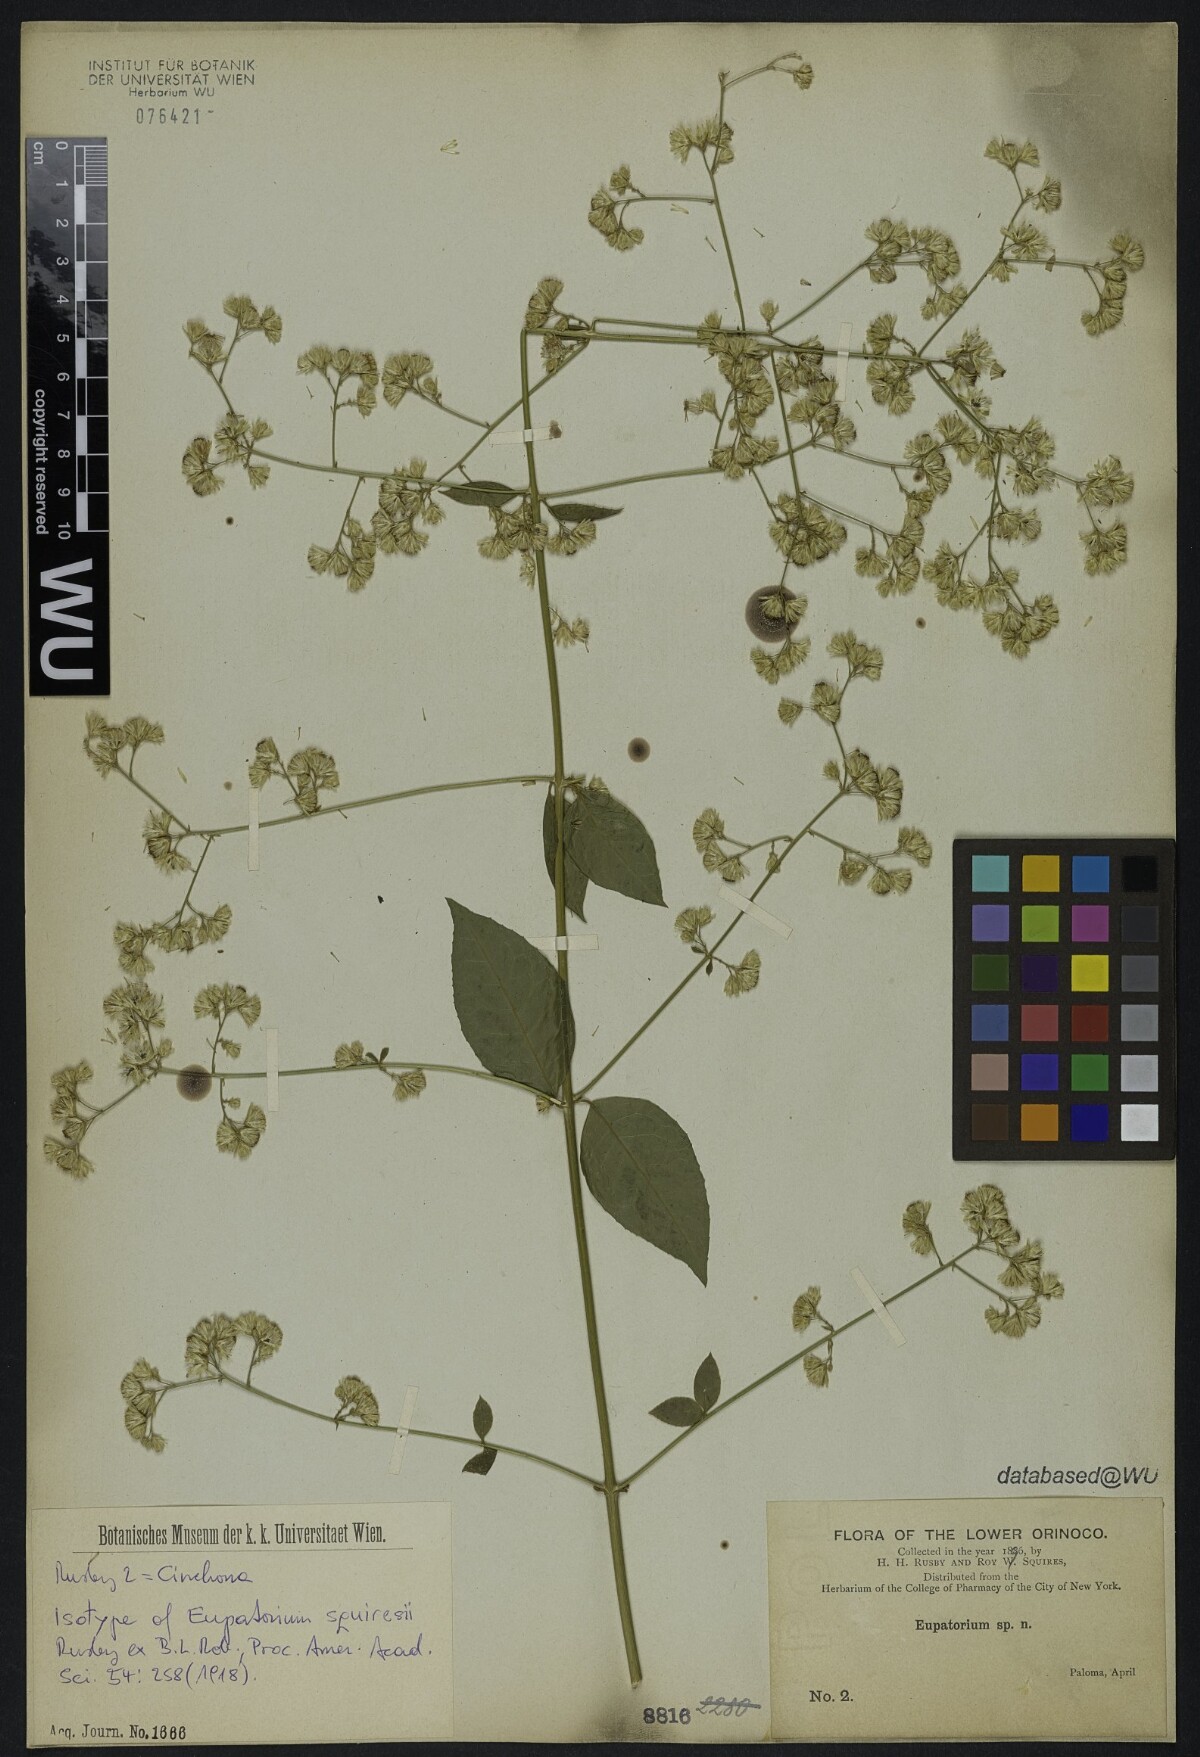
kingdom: Plantae
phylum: Tracheophyta
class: Magnoliopsida
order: Asterales
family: Asteraceae
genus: Ayapana
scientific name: Ayapana trinitensis
